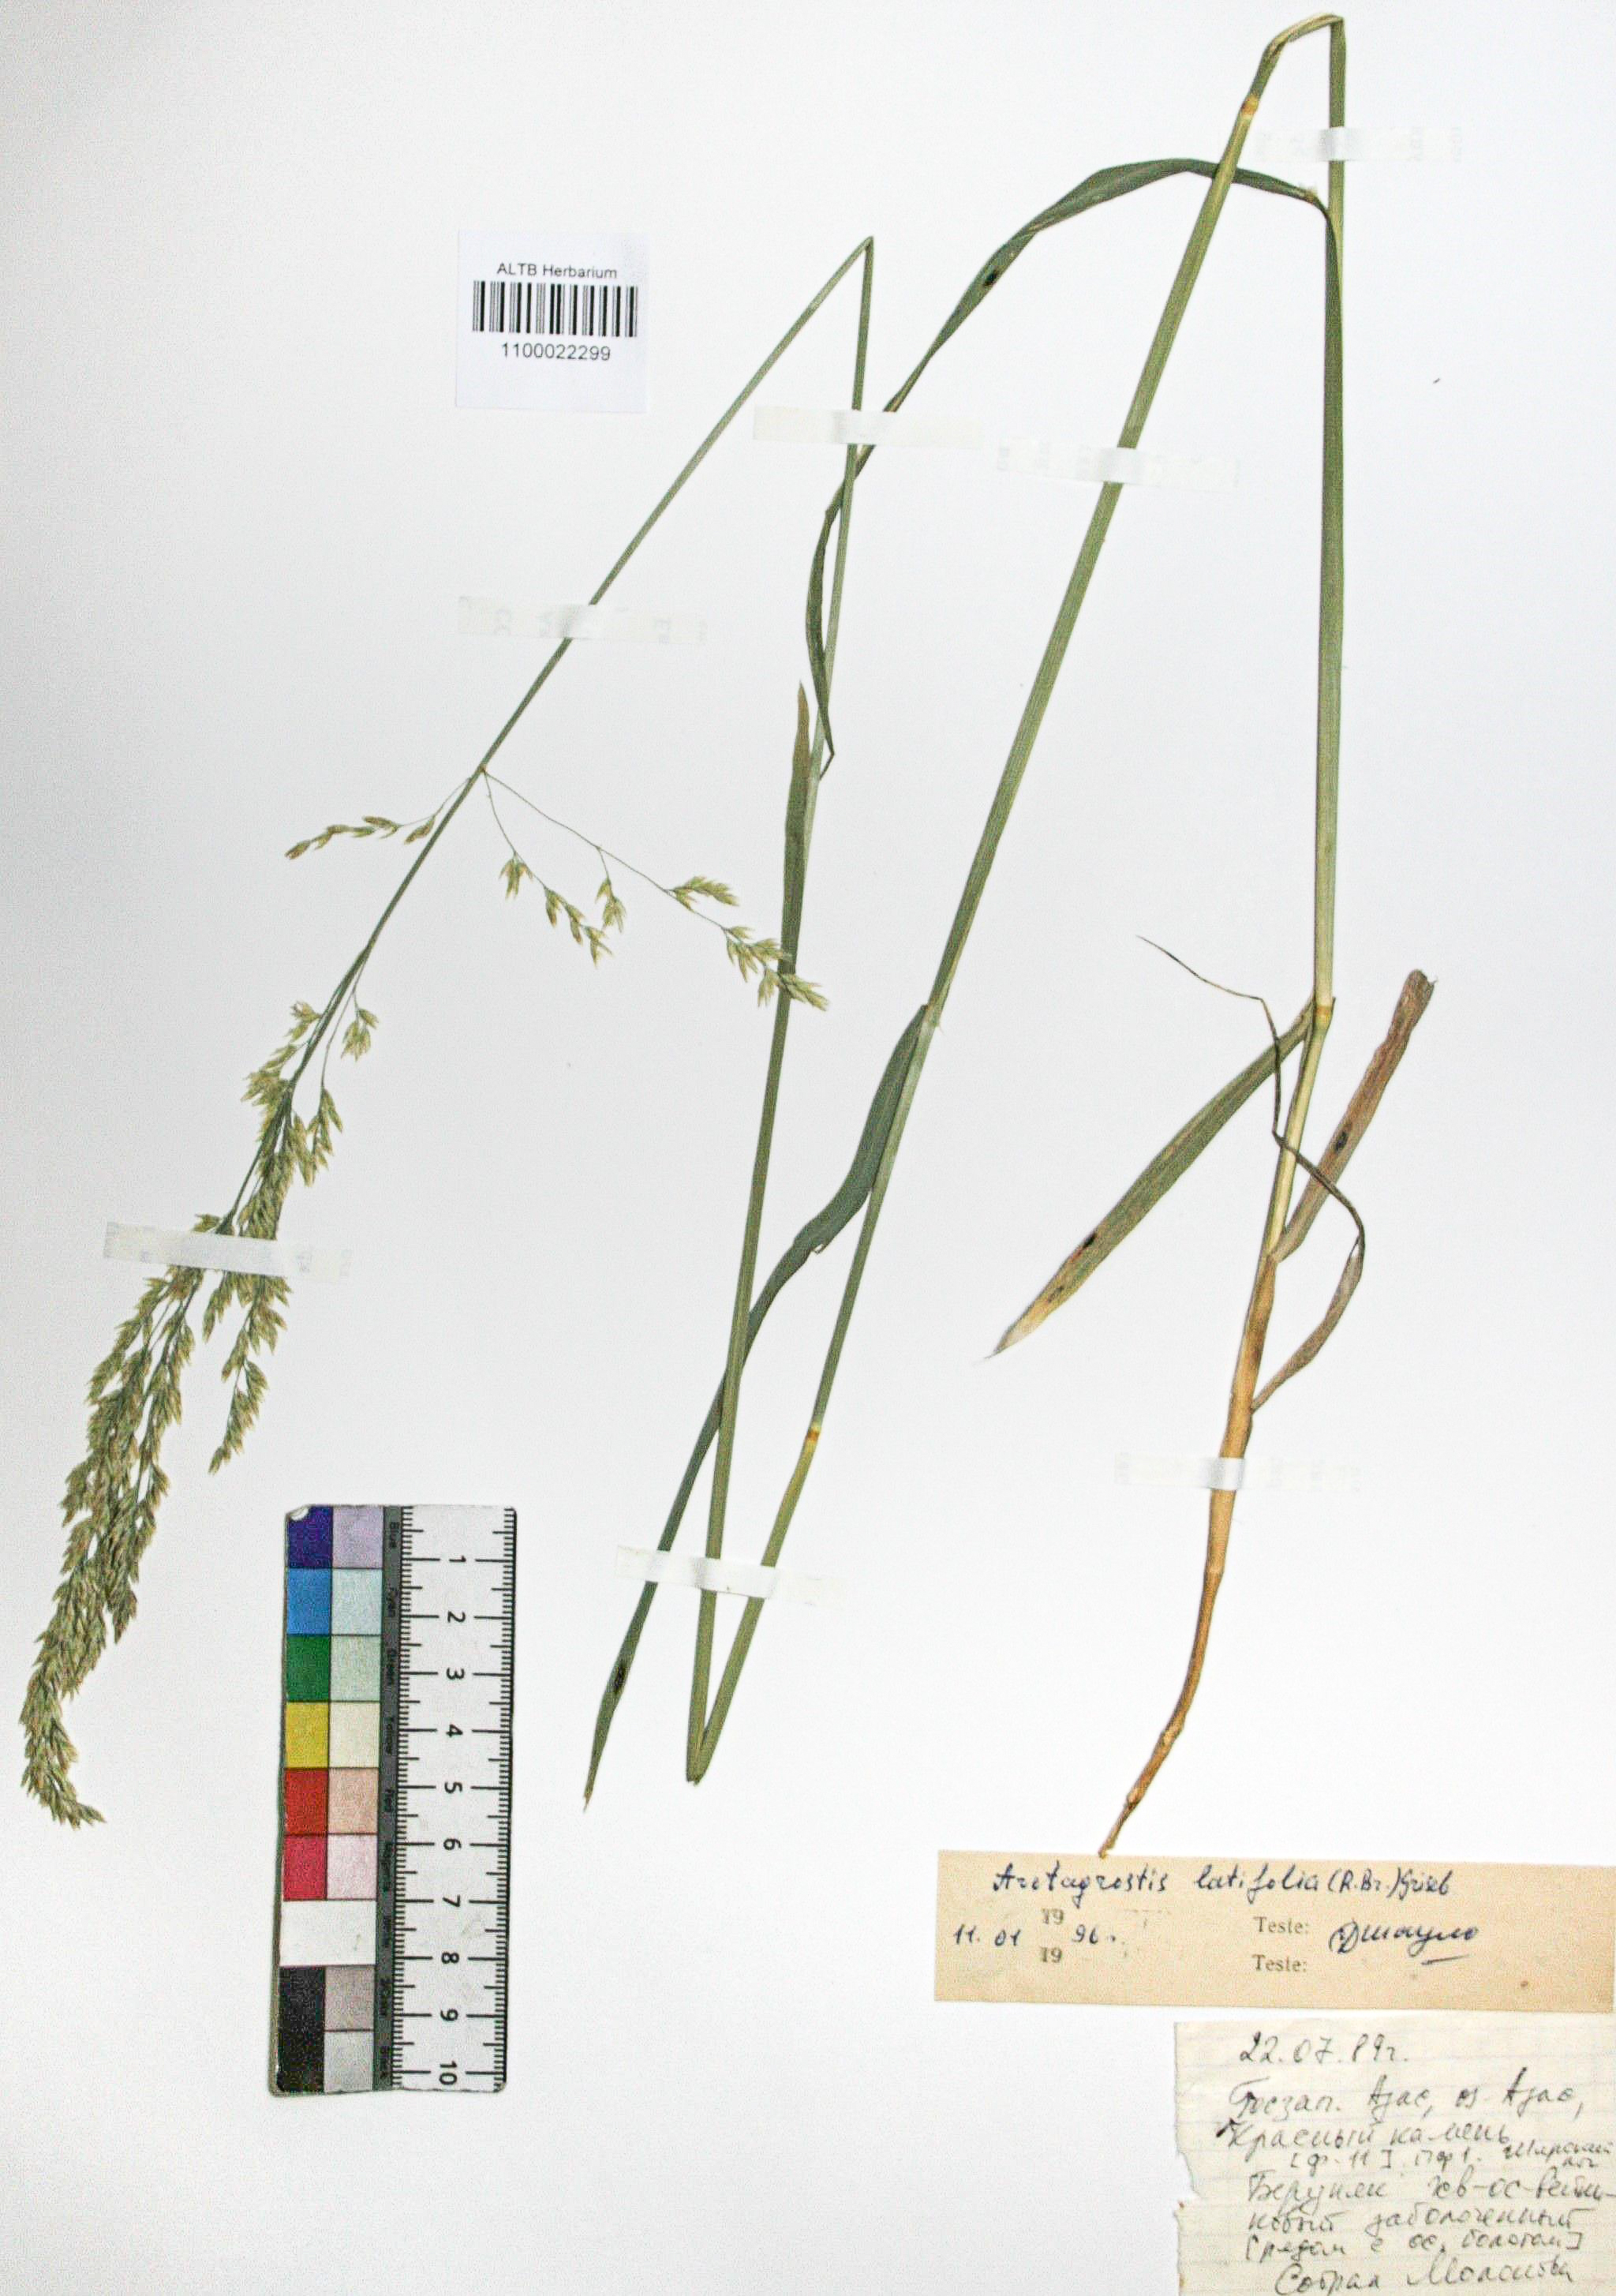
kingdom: Plantae
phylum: Tracheophyta
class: Liliopsida
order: Poales
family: Poaceae
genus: Arctagrostis
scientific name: Arctagrostis latifolia
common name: Arctic grass
